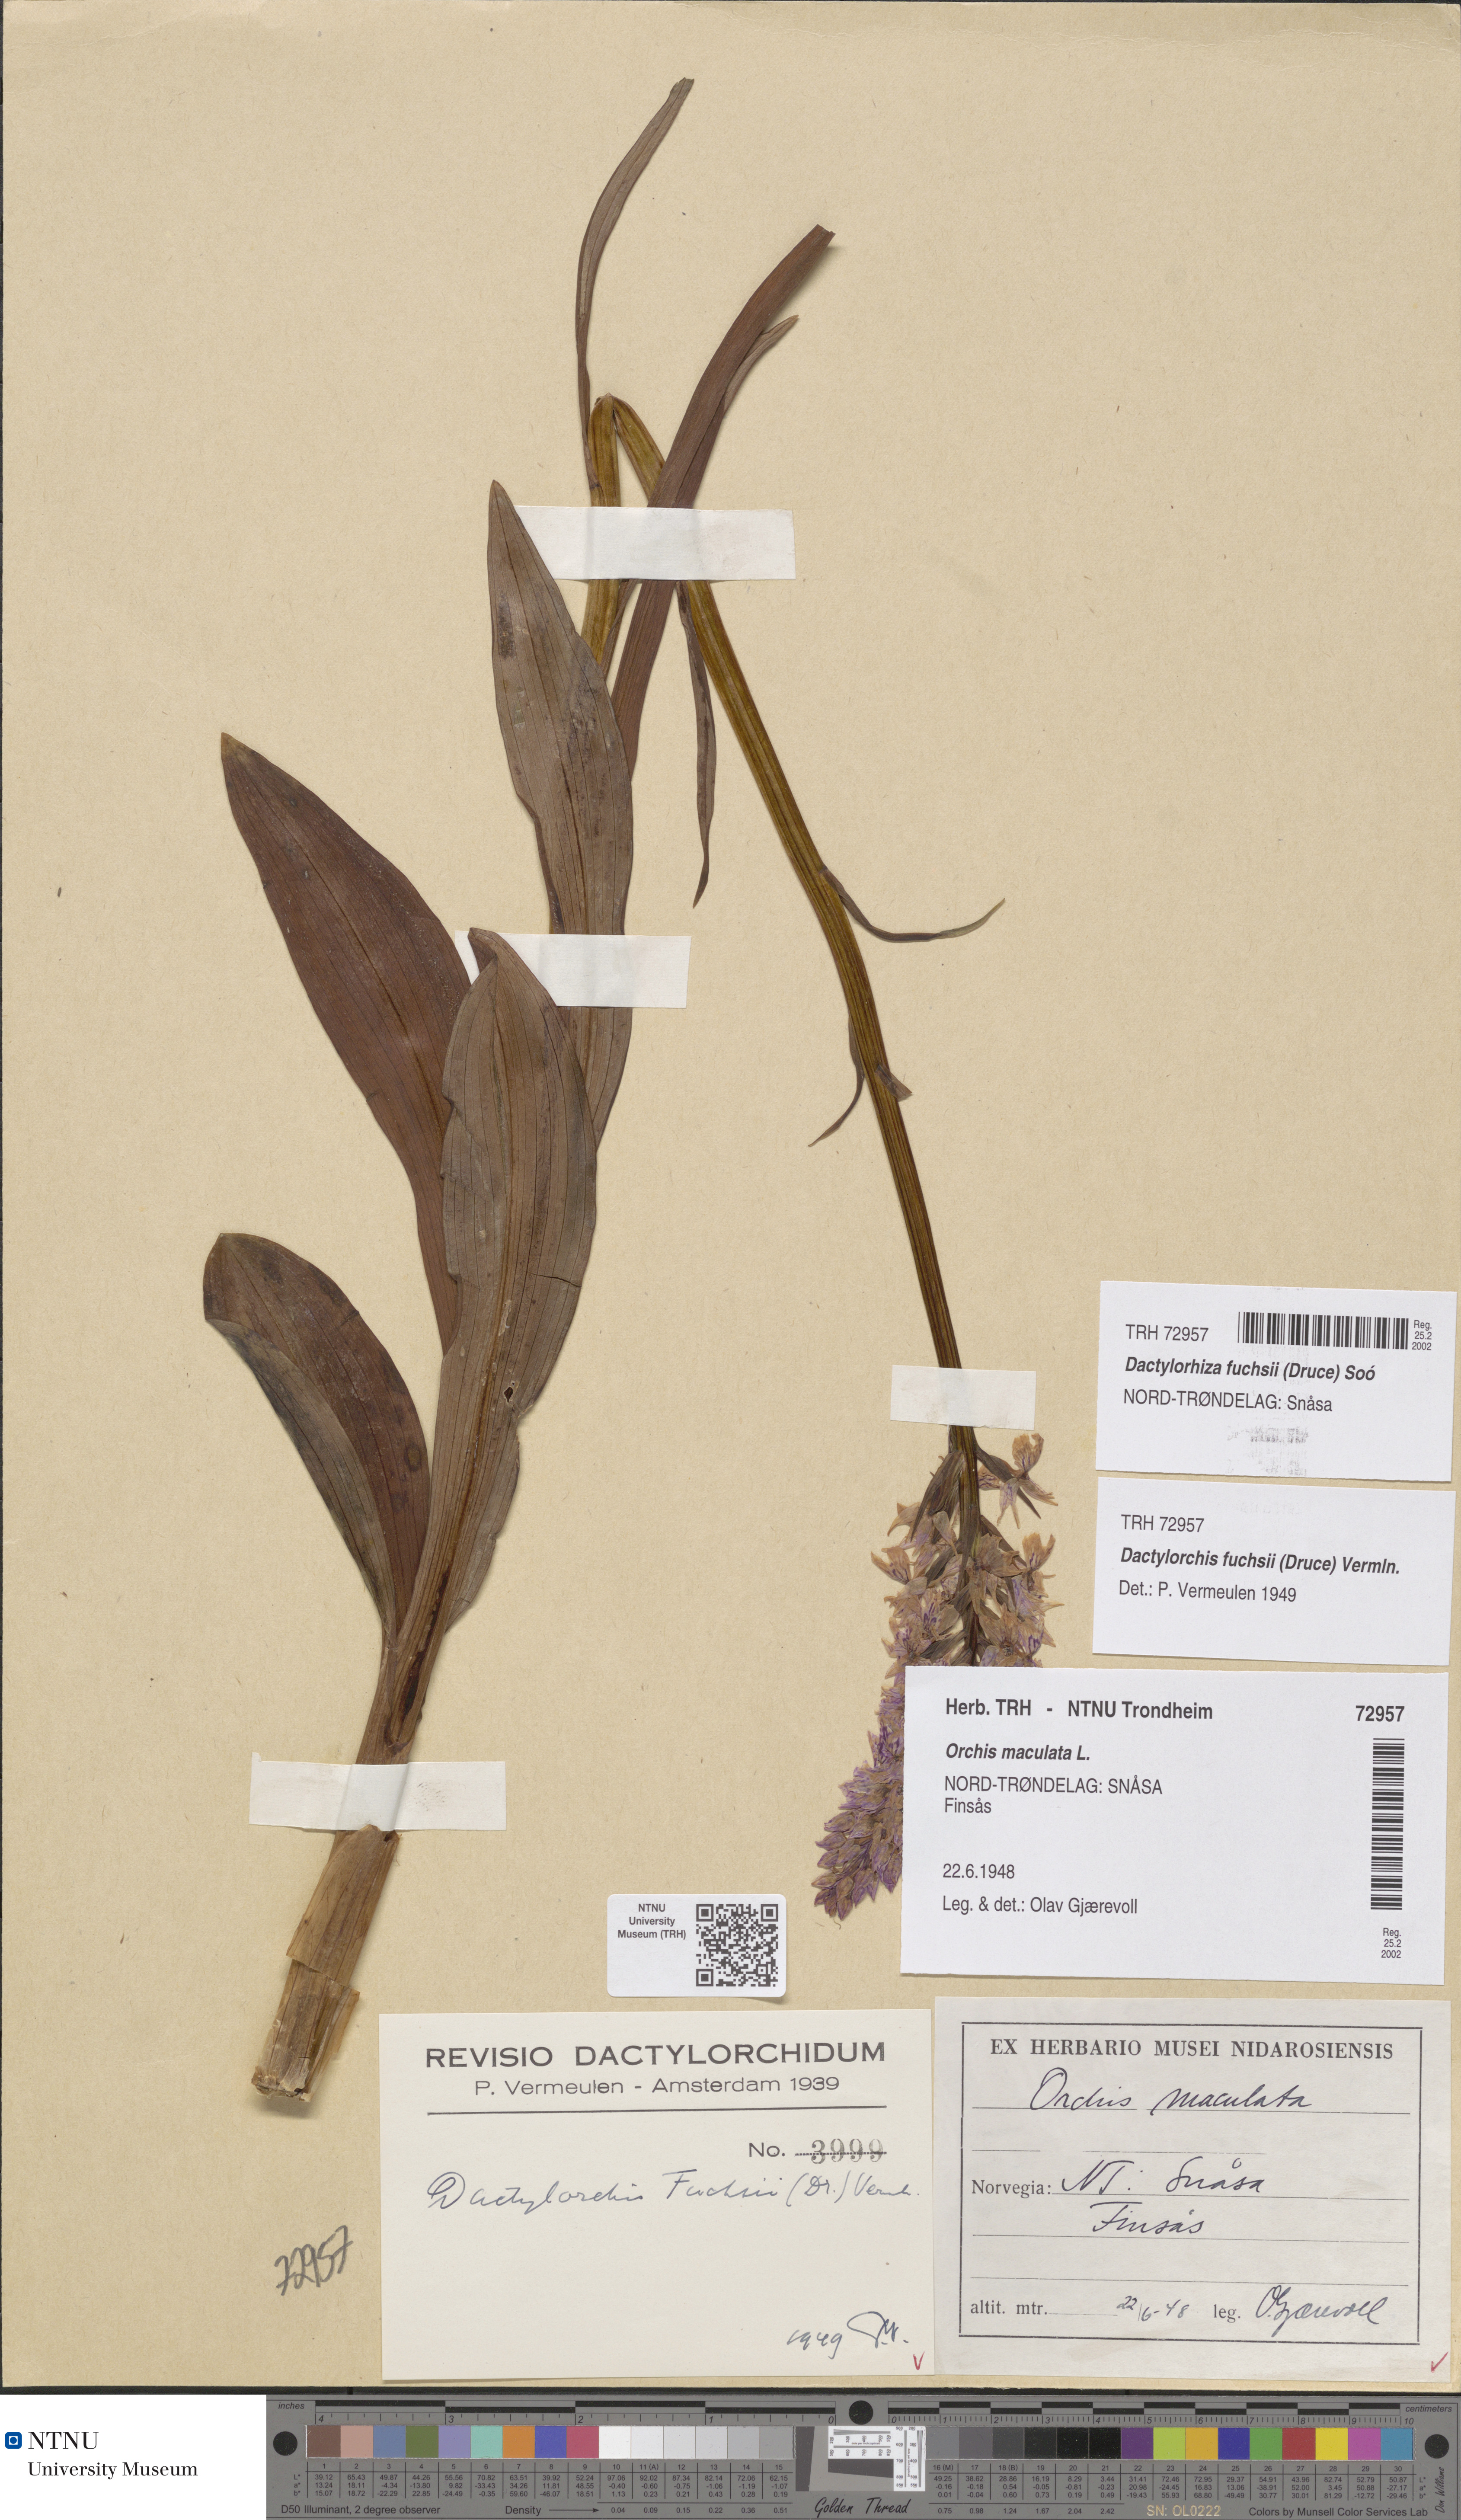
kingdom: Plantae
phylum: Tracheophyta
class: Liliopsida
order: Asparagales
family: Orchidaceae
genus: Dactylorhiza
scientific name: Dactylorhiza maculata
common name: Heath spotted-orchid
